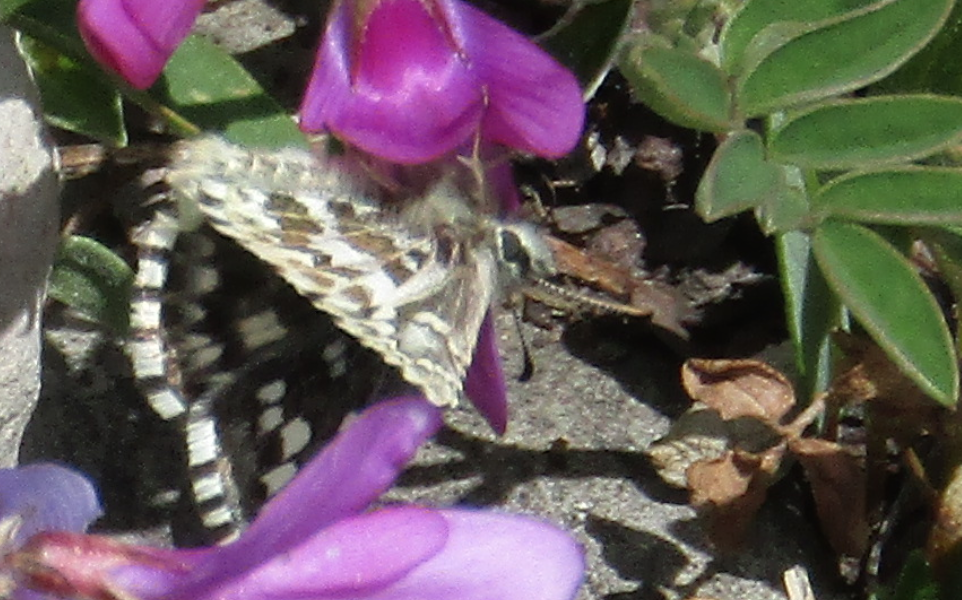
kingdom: Animalia
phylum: Arthropoda
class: Insecta
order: Lepidoptera
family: Hesperiidae
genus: Pyrgus
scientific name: Pyrgus centaureae
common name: Grizzled Skipper
